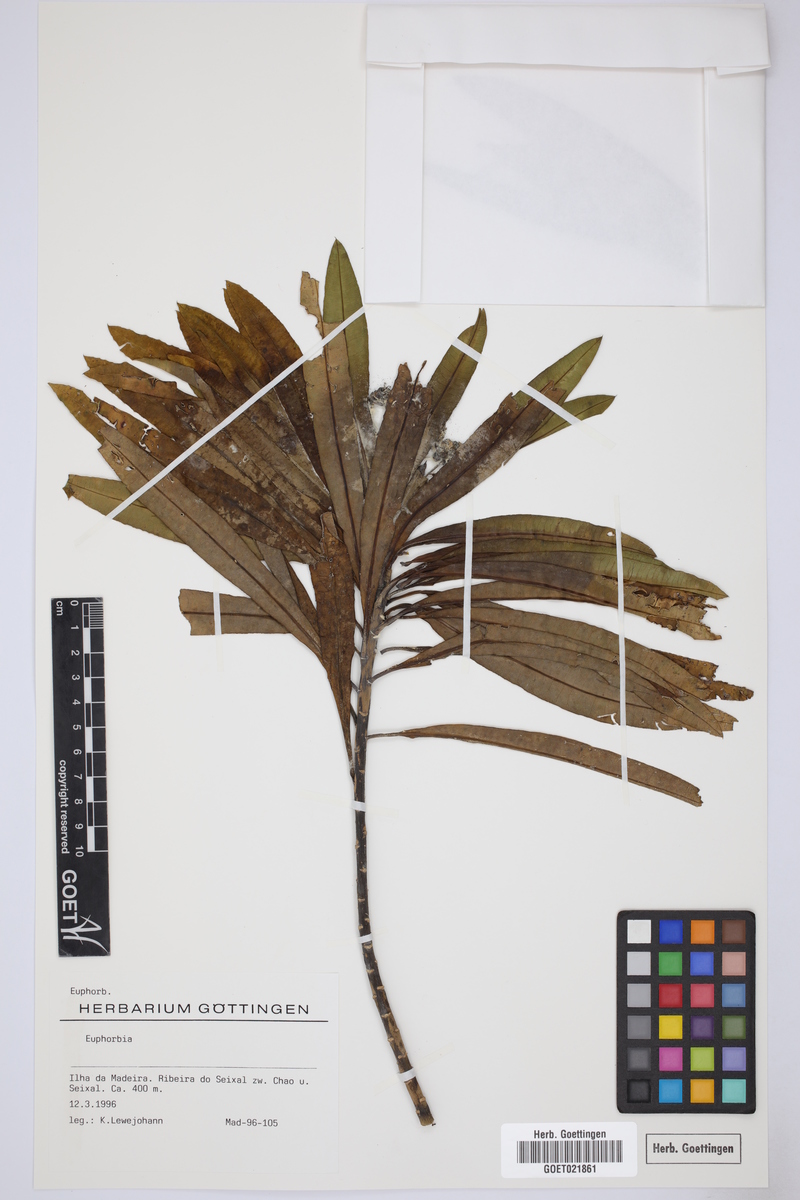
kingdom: Plantae
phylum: Tracheophyta
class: Magnoliopsida
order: Malpighiales
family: Euphorbiaceae
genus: Euphorbia
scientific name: Euphorbia
